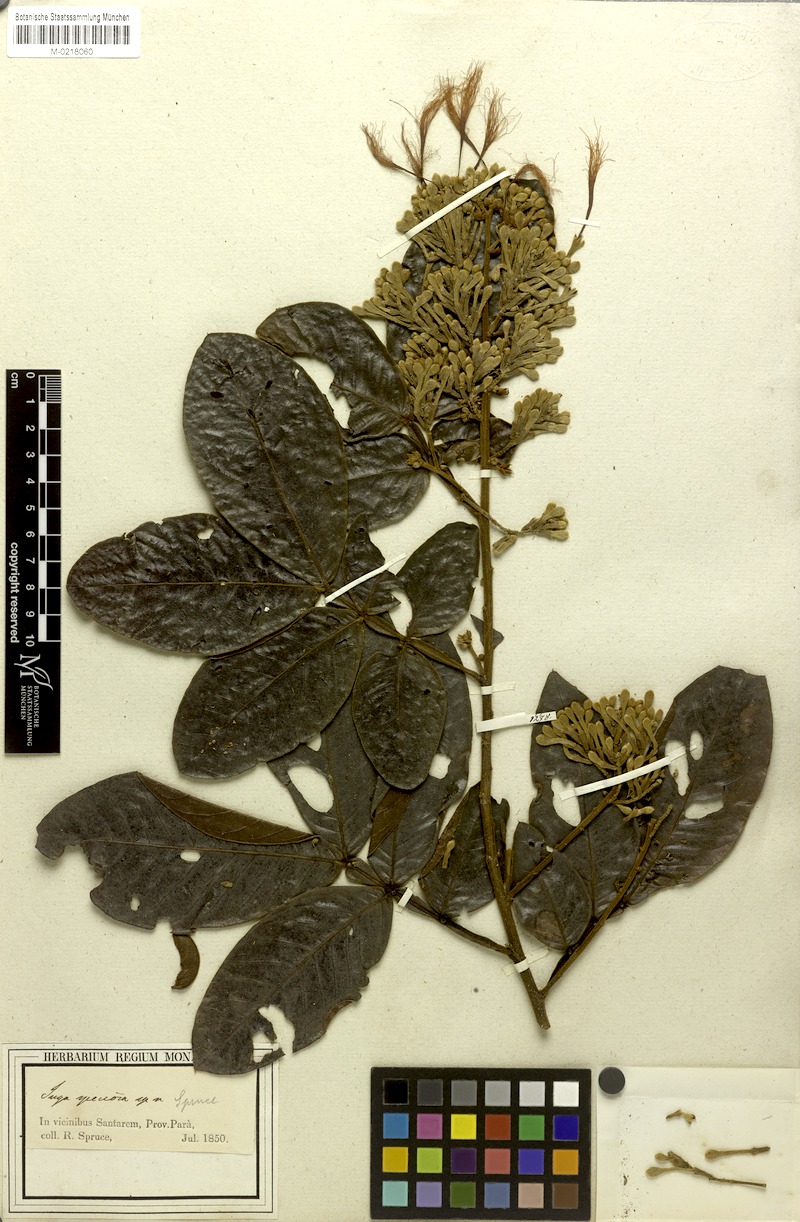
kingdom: Plantae
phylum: Tracheophyta
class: Magnoliopsida
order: Fabales
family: Fabaceae
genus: Inga
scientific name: Inga lomatophylla
